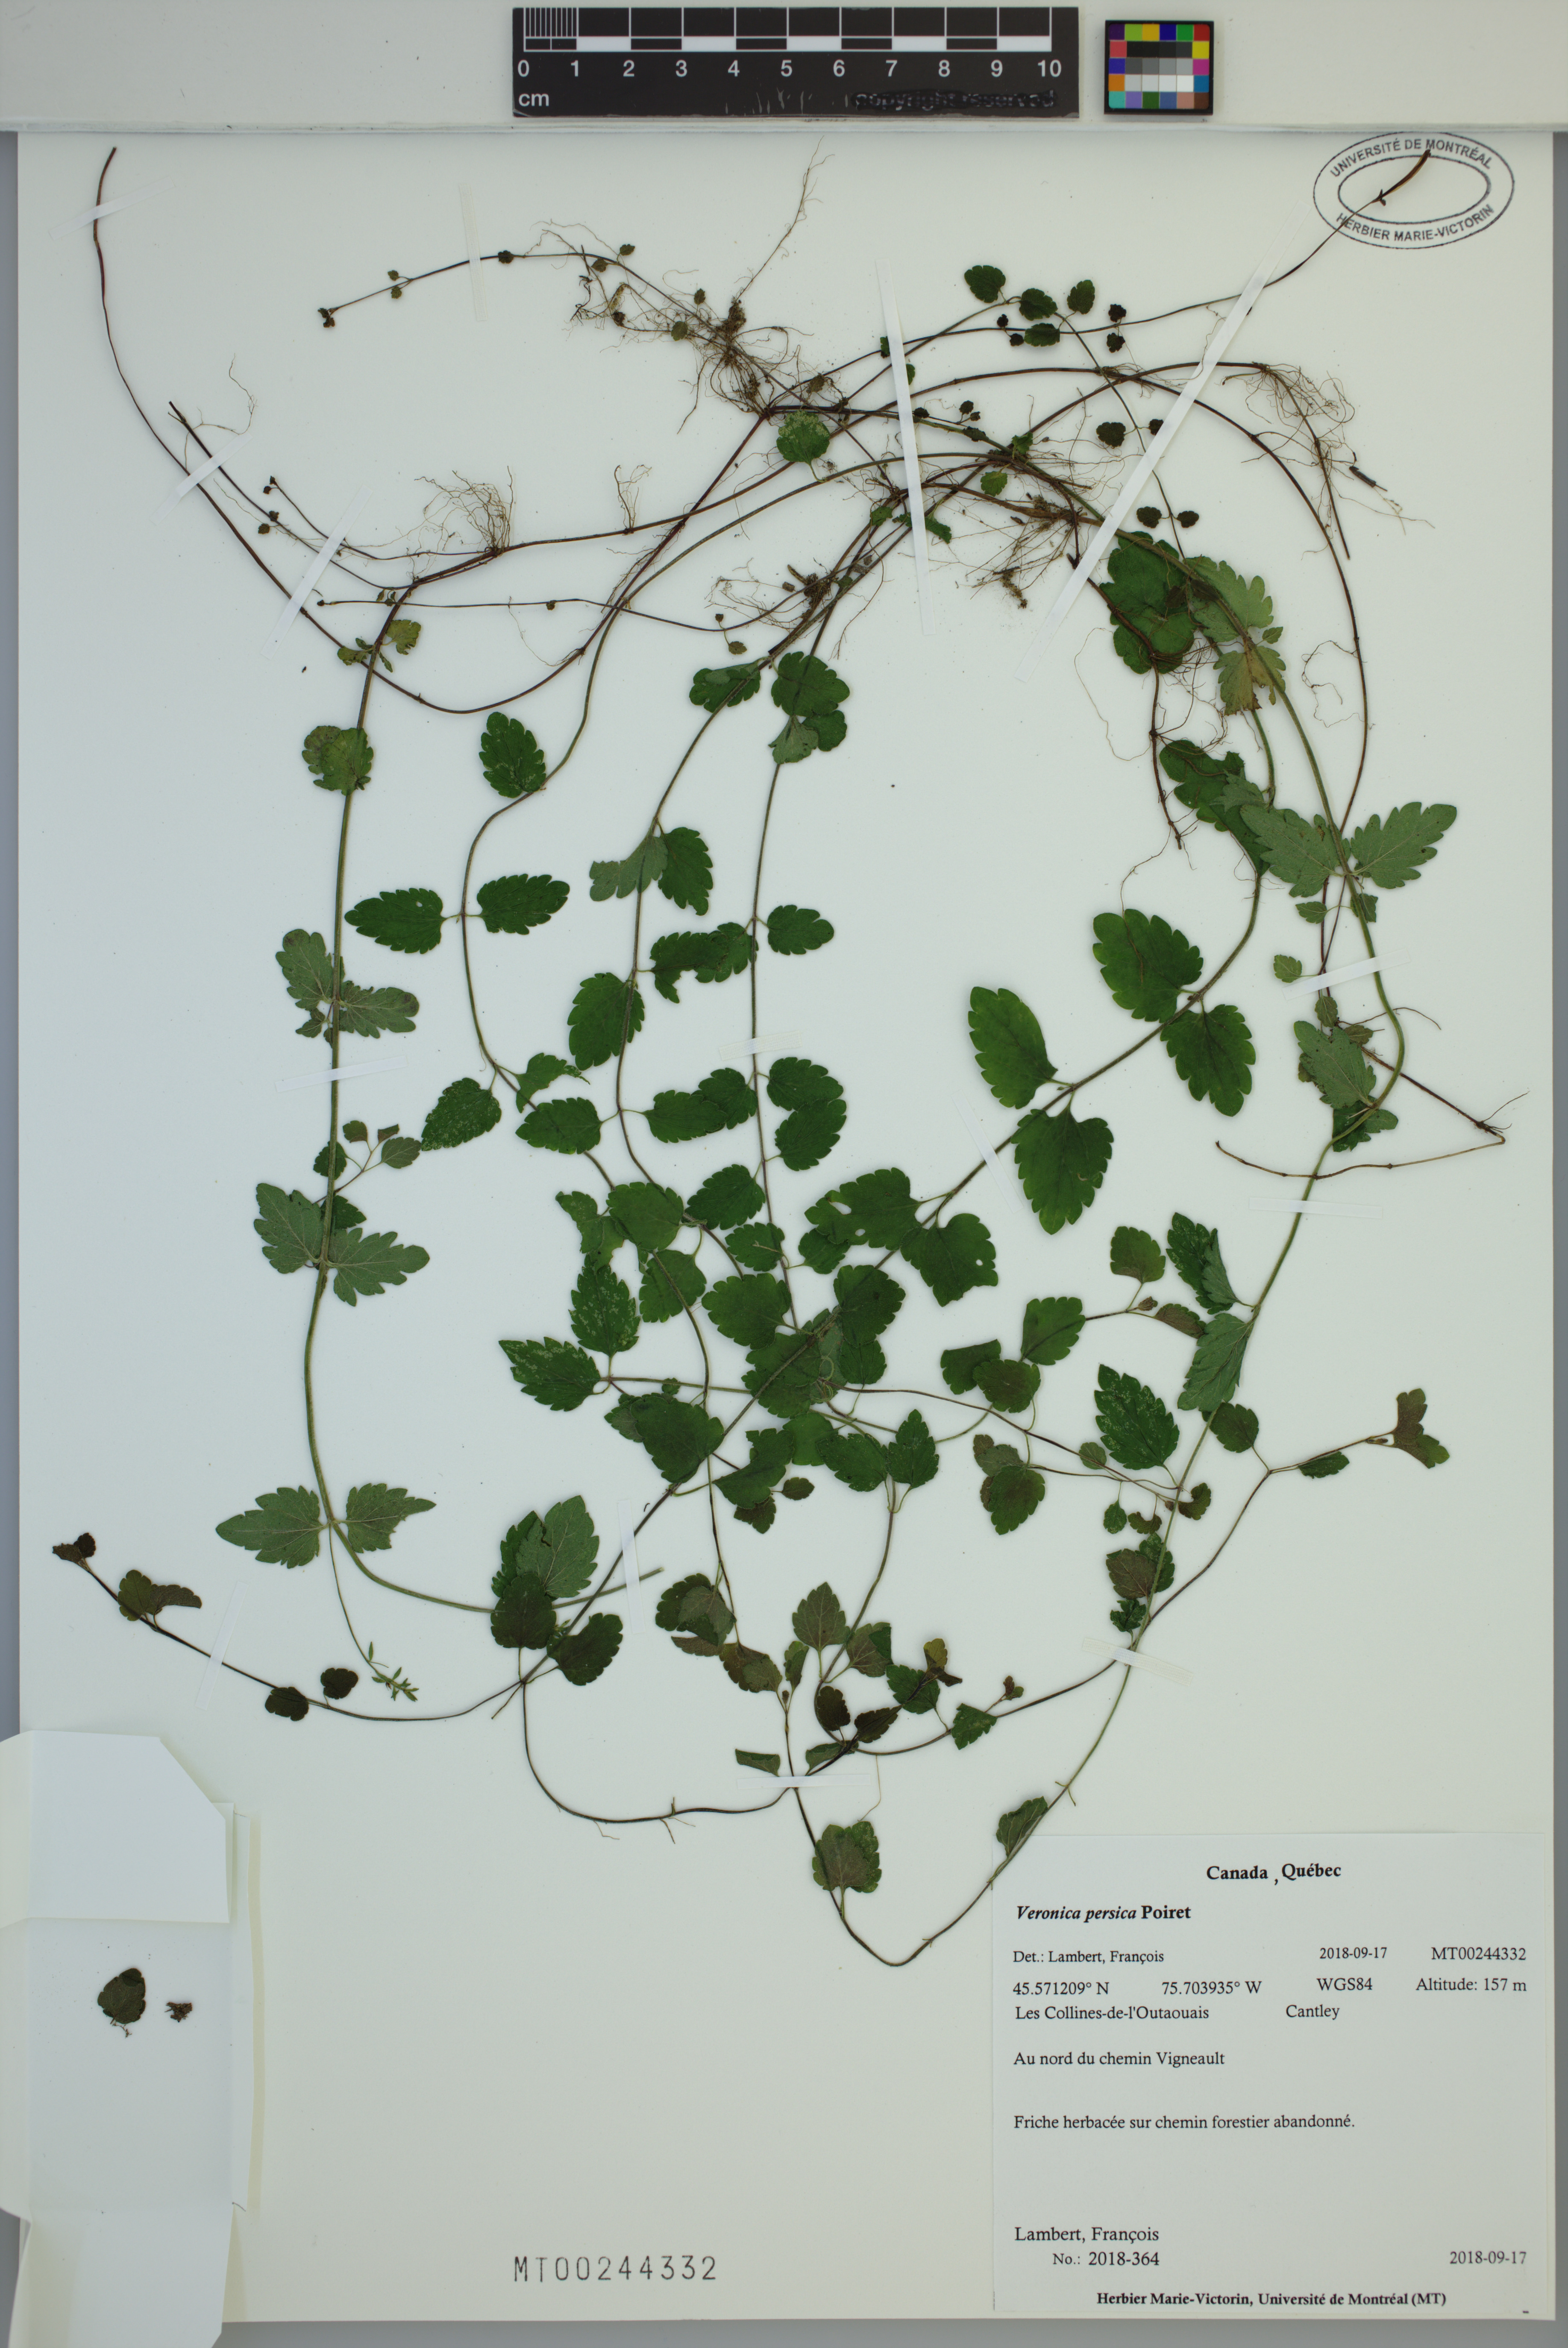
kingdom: Plantae
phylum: Tracheophyta
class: Magnoliopsida
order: Lamiales
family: Plantaginaceae
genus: Veronica
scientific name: Veronica persica
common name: Common field-speedwell
